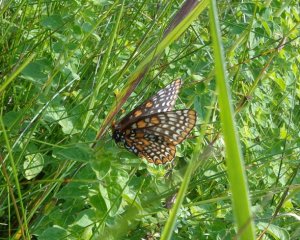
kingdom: Animalia
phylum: Arthropoda
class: Insecta
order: Lepidoptera
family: Nymphalidae
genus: Euphydryas
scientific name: Euphydryas phaeton
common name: Baltimore Checkerspot
